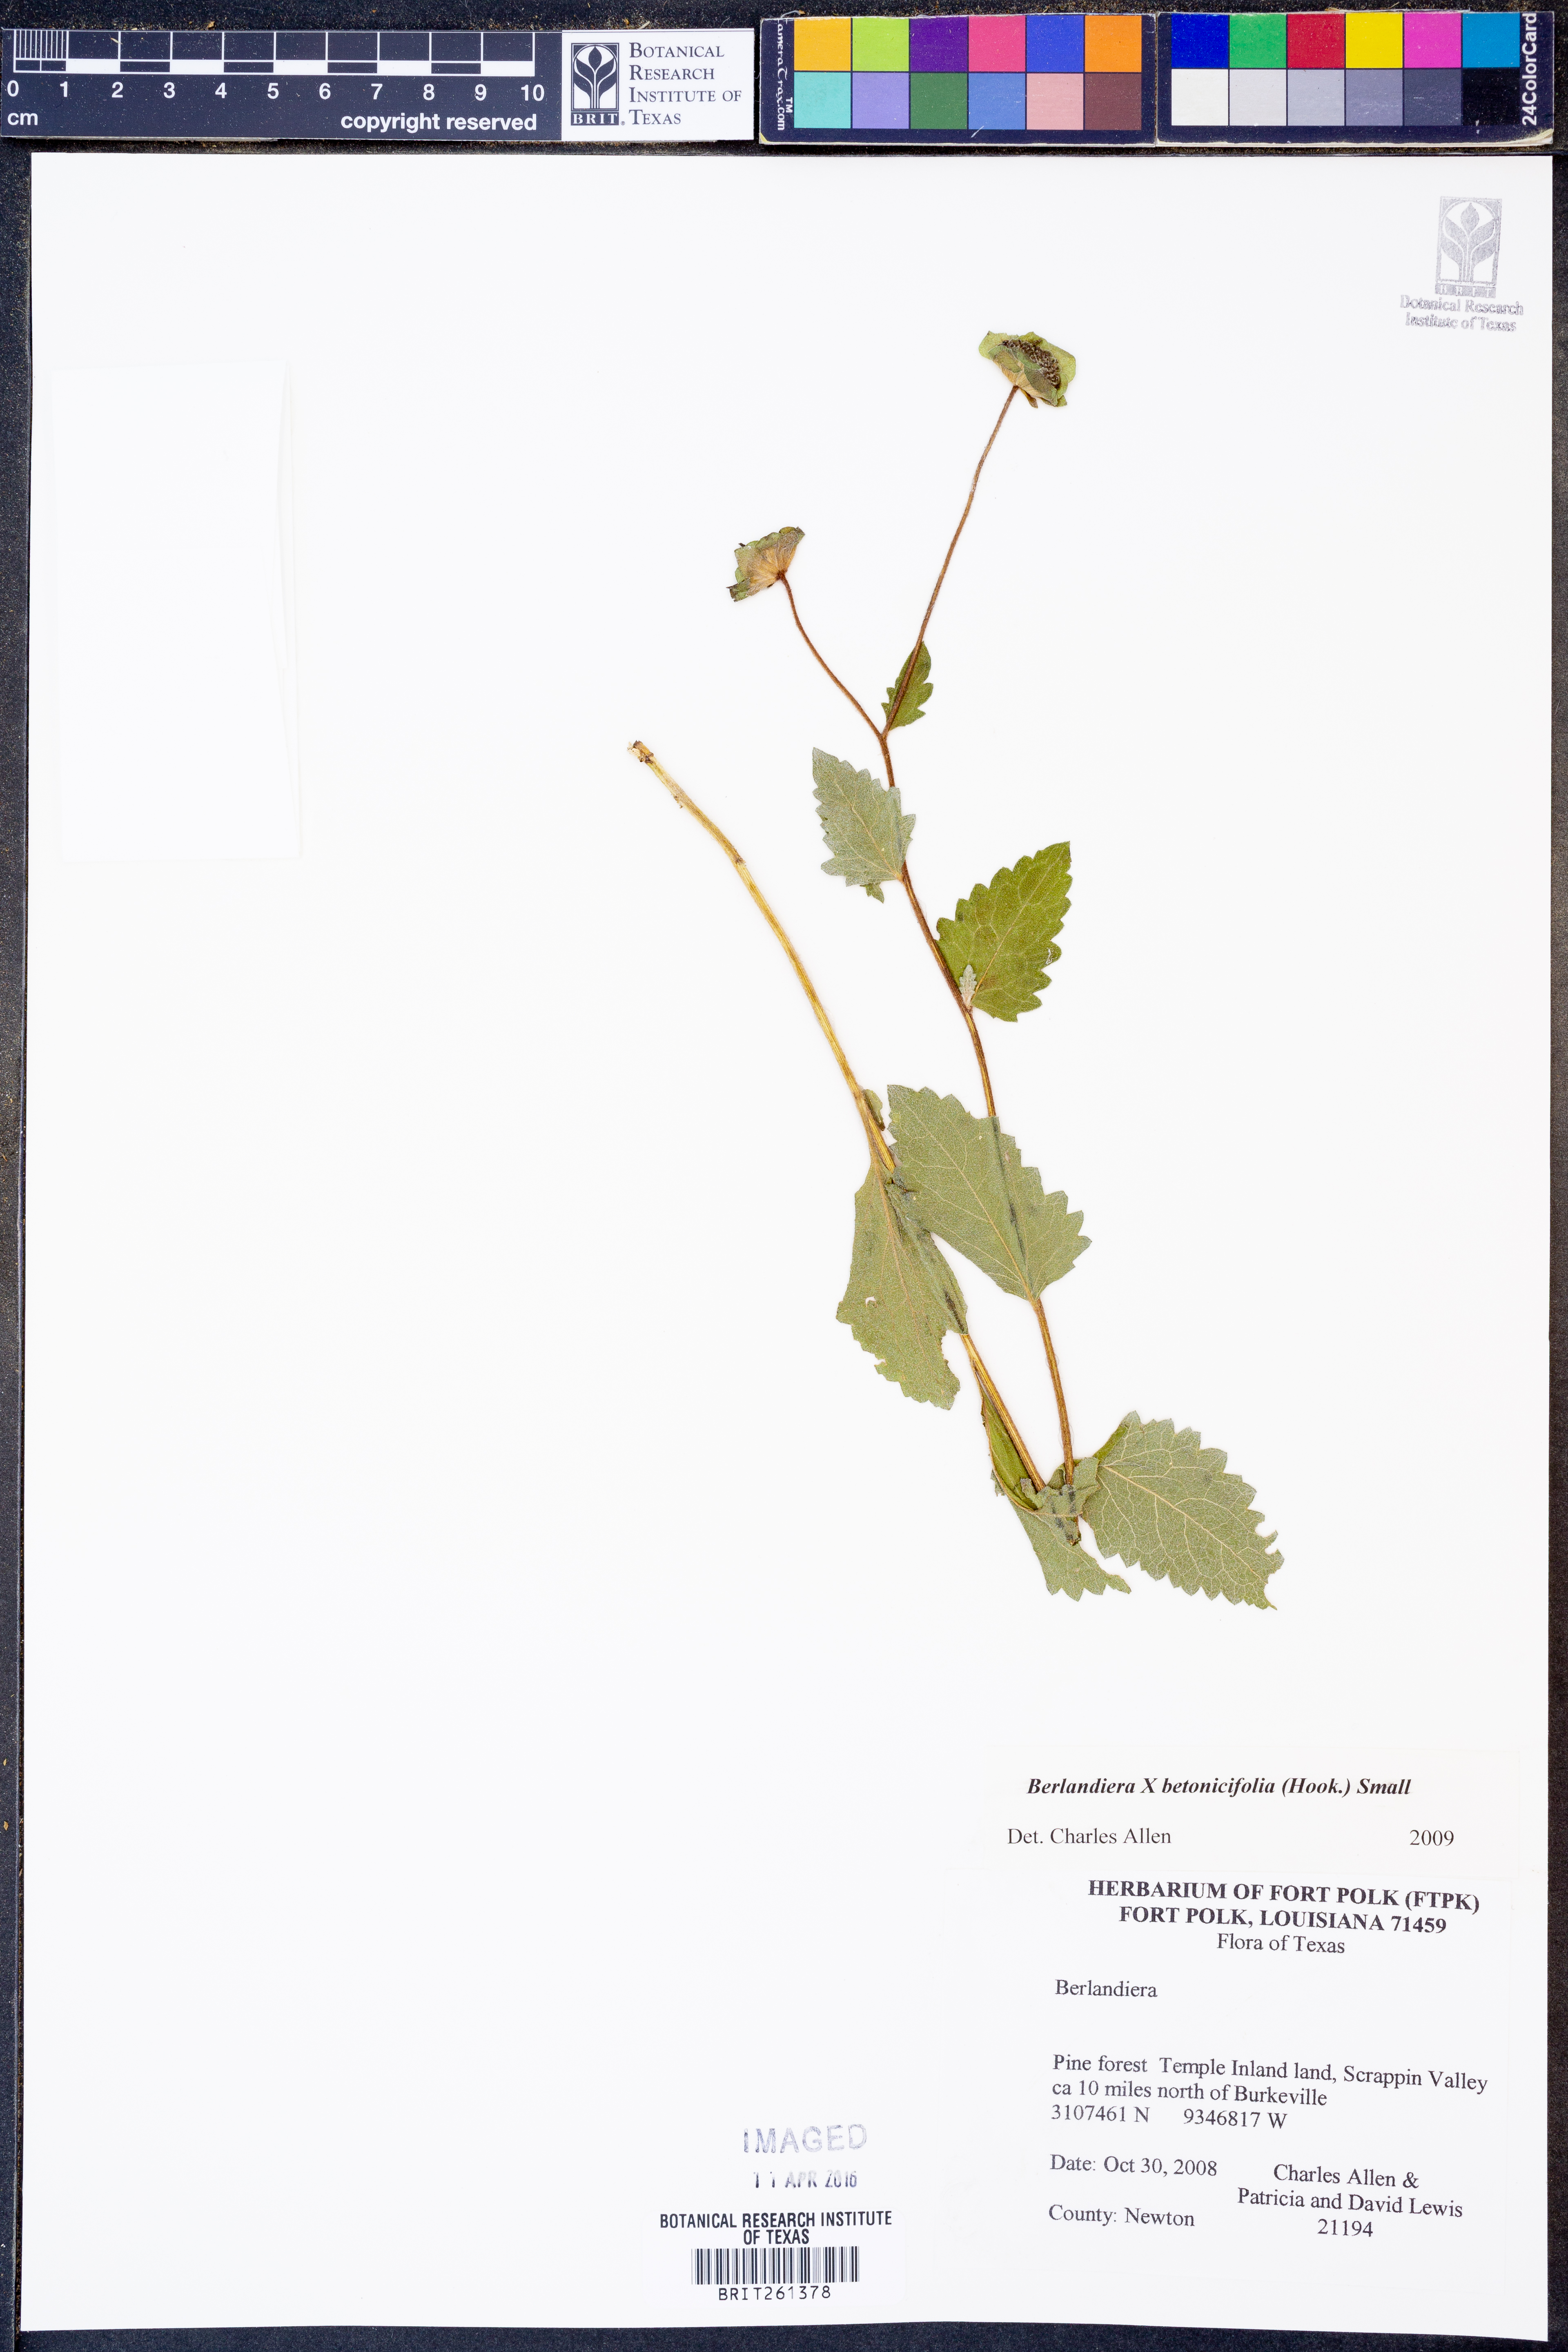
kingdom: Plantae
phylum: Tracheophyta
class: Magnoliopsida
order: Asterales
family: Asteraceae
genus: Berlandiera
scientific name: Berlandiera betonicifolia
